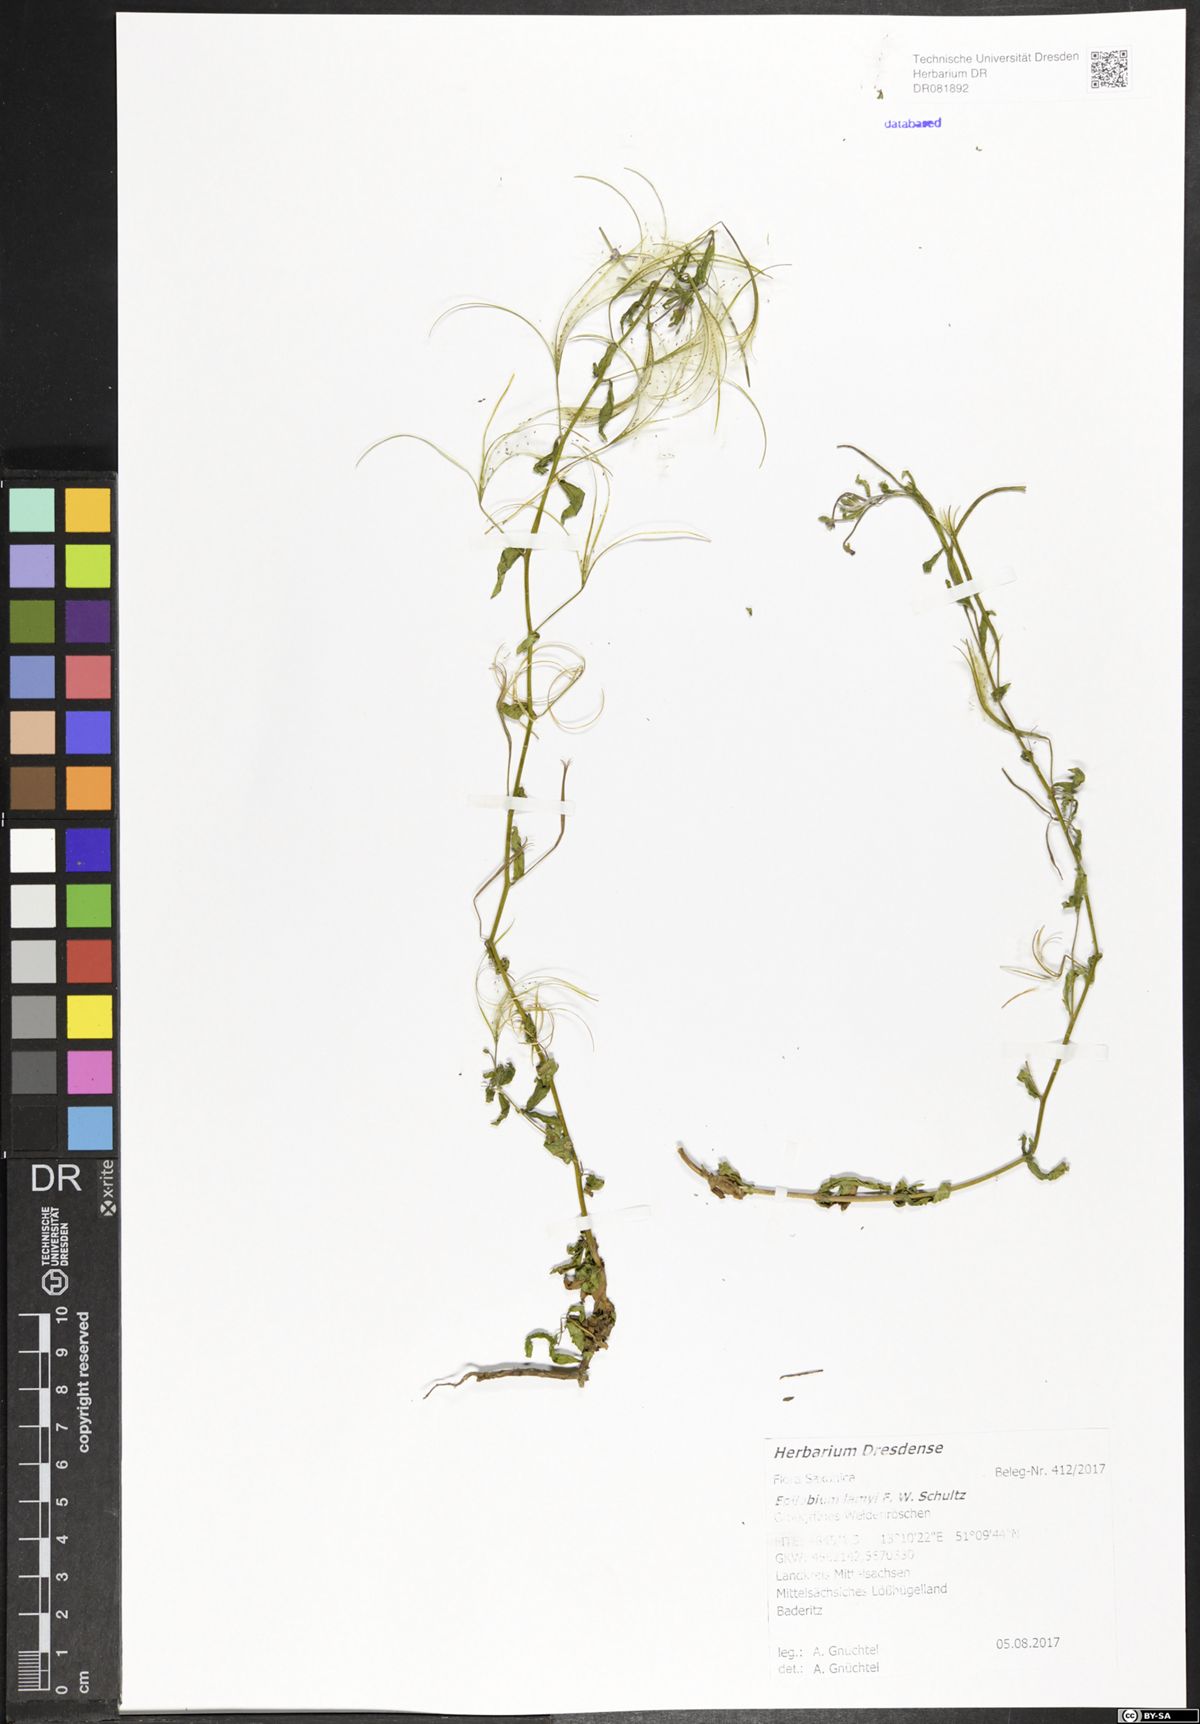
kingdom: Plantae
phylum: Tracheophyta
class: Magnoliopsida
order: Myrtales
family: Onagraceae
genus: Epilobium
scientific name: Epilobium lamyi
